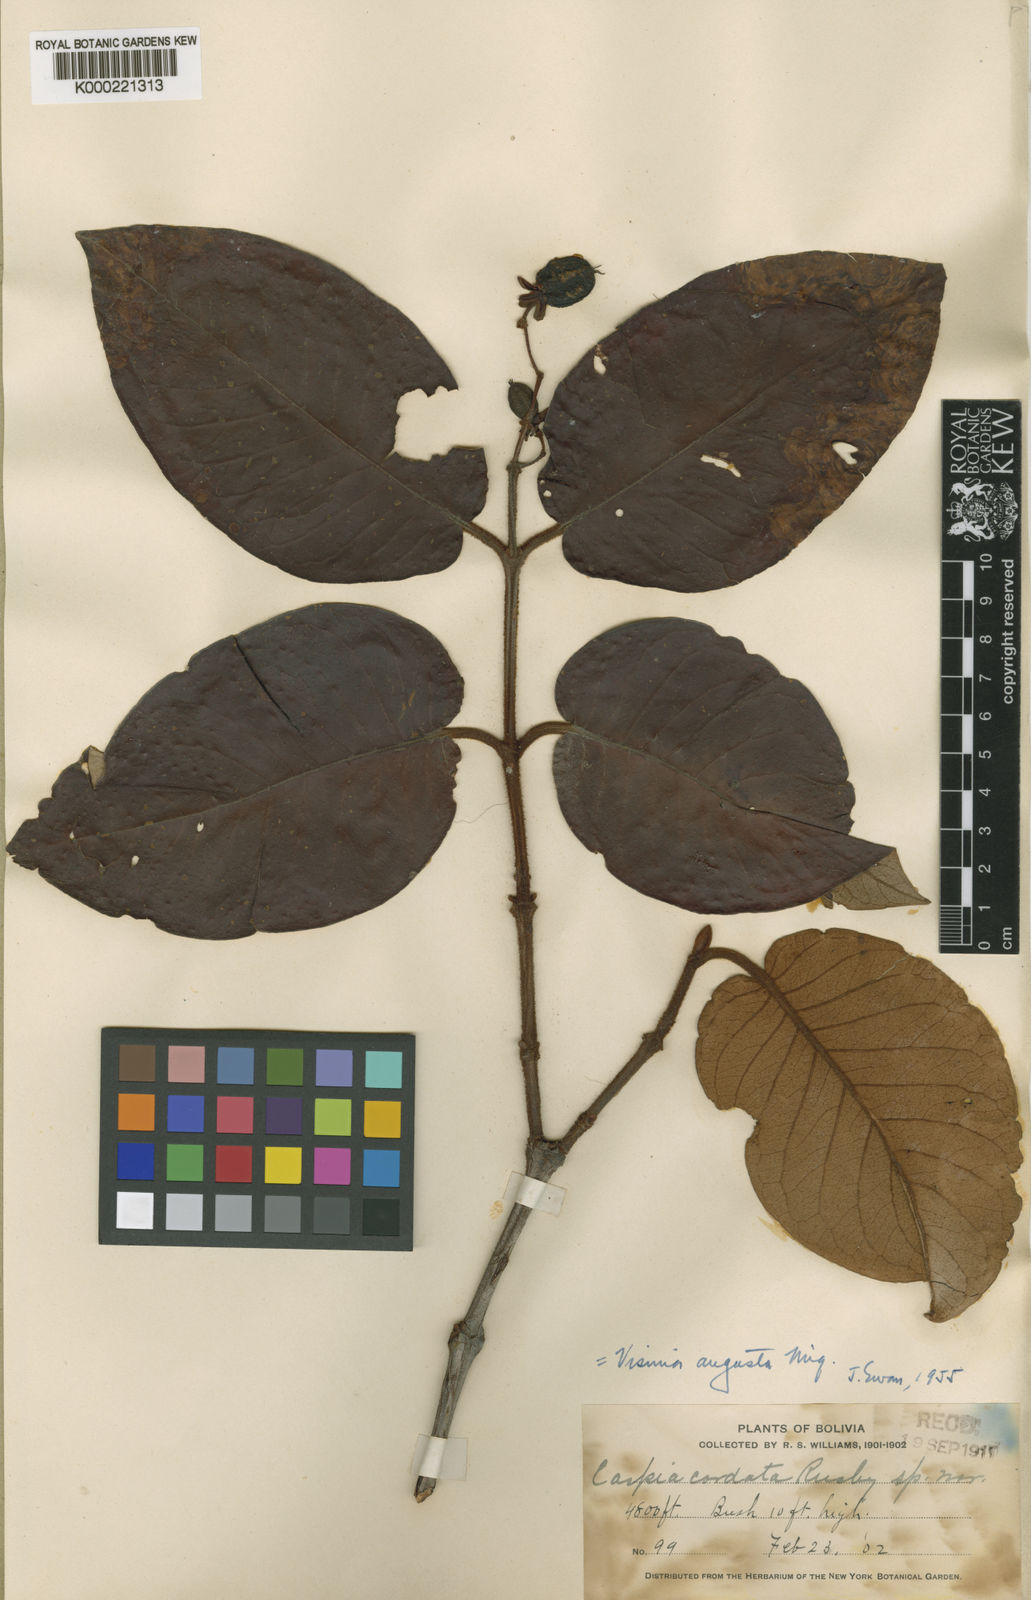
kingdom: Plantae
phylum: Tracheophyta
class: Magnoliopsida
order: Malpighiales
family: Hypericaceae
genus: Vismia
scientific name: Vismia tomentosa
